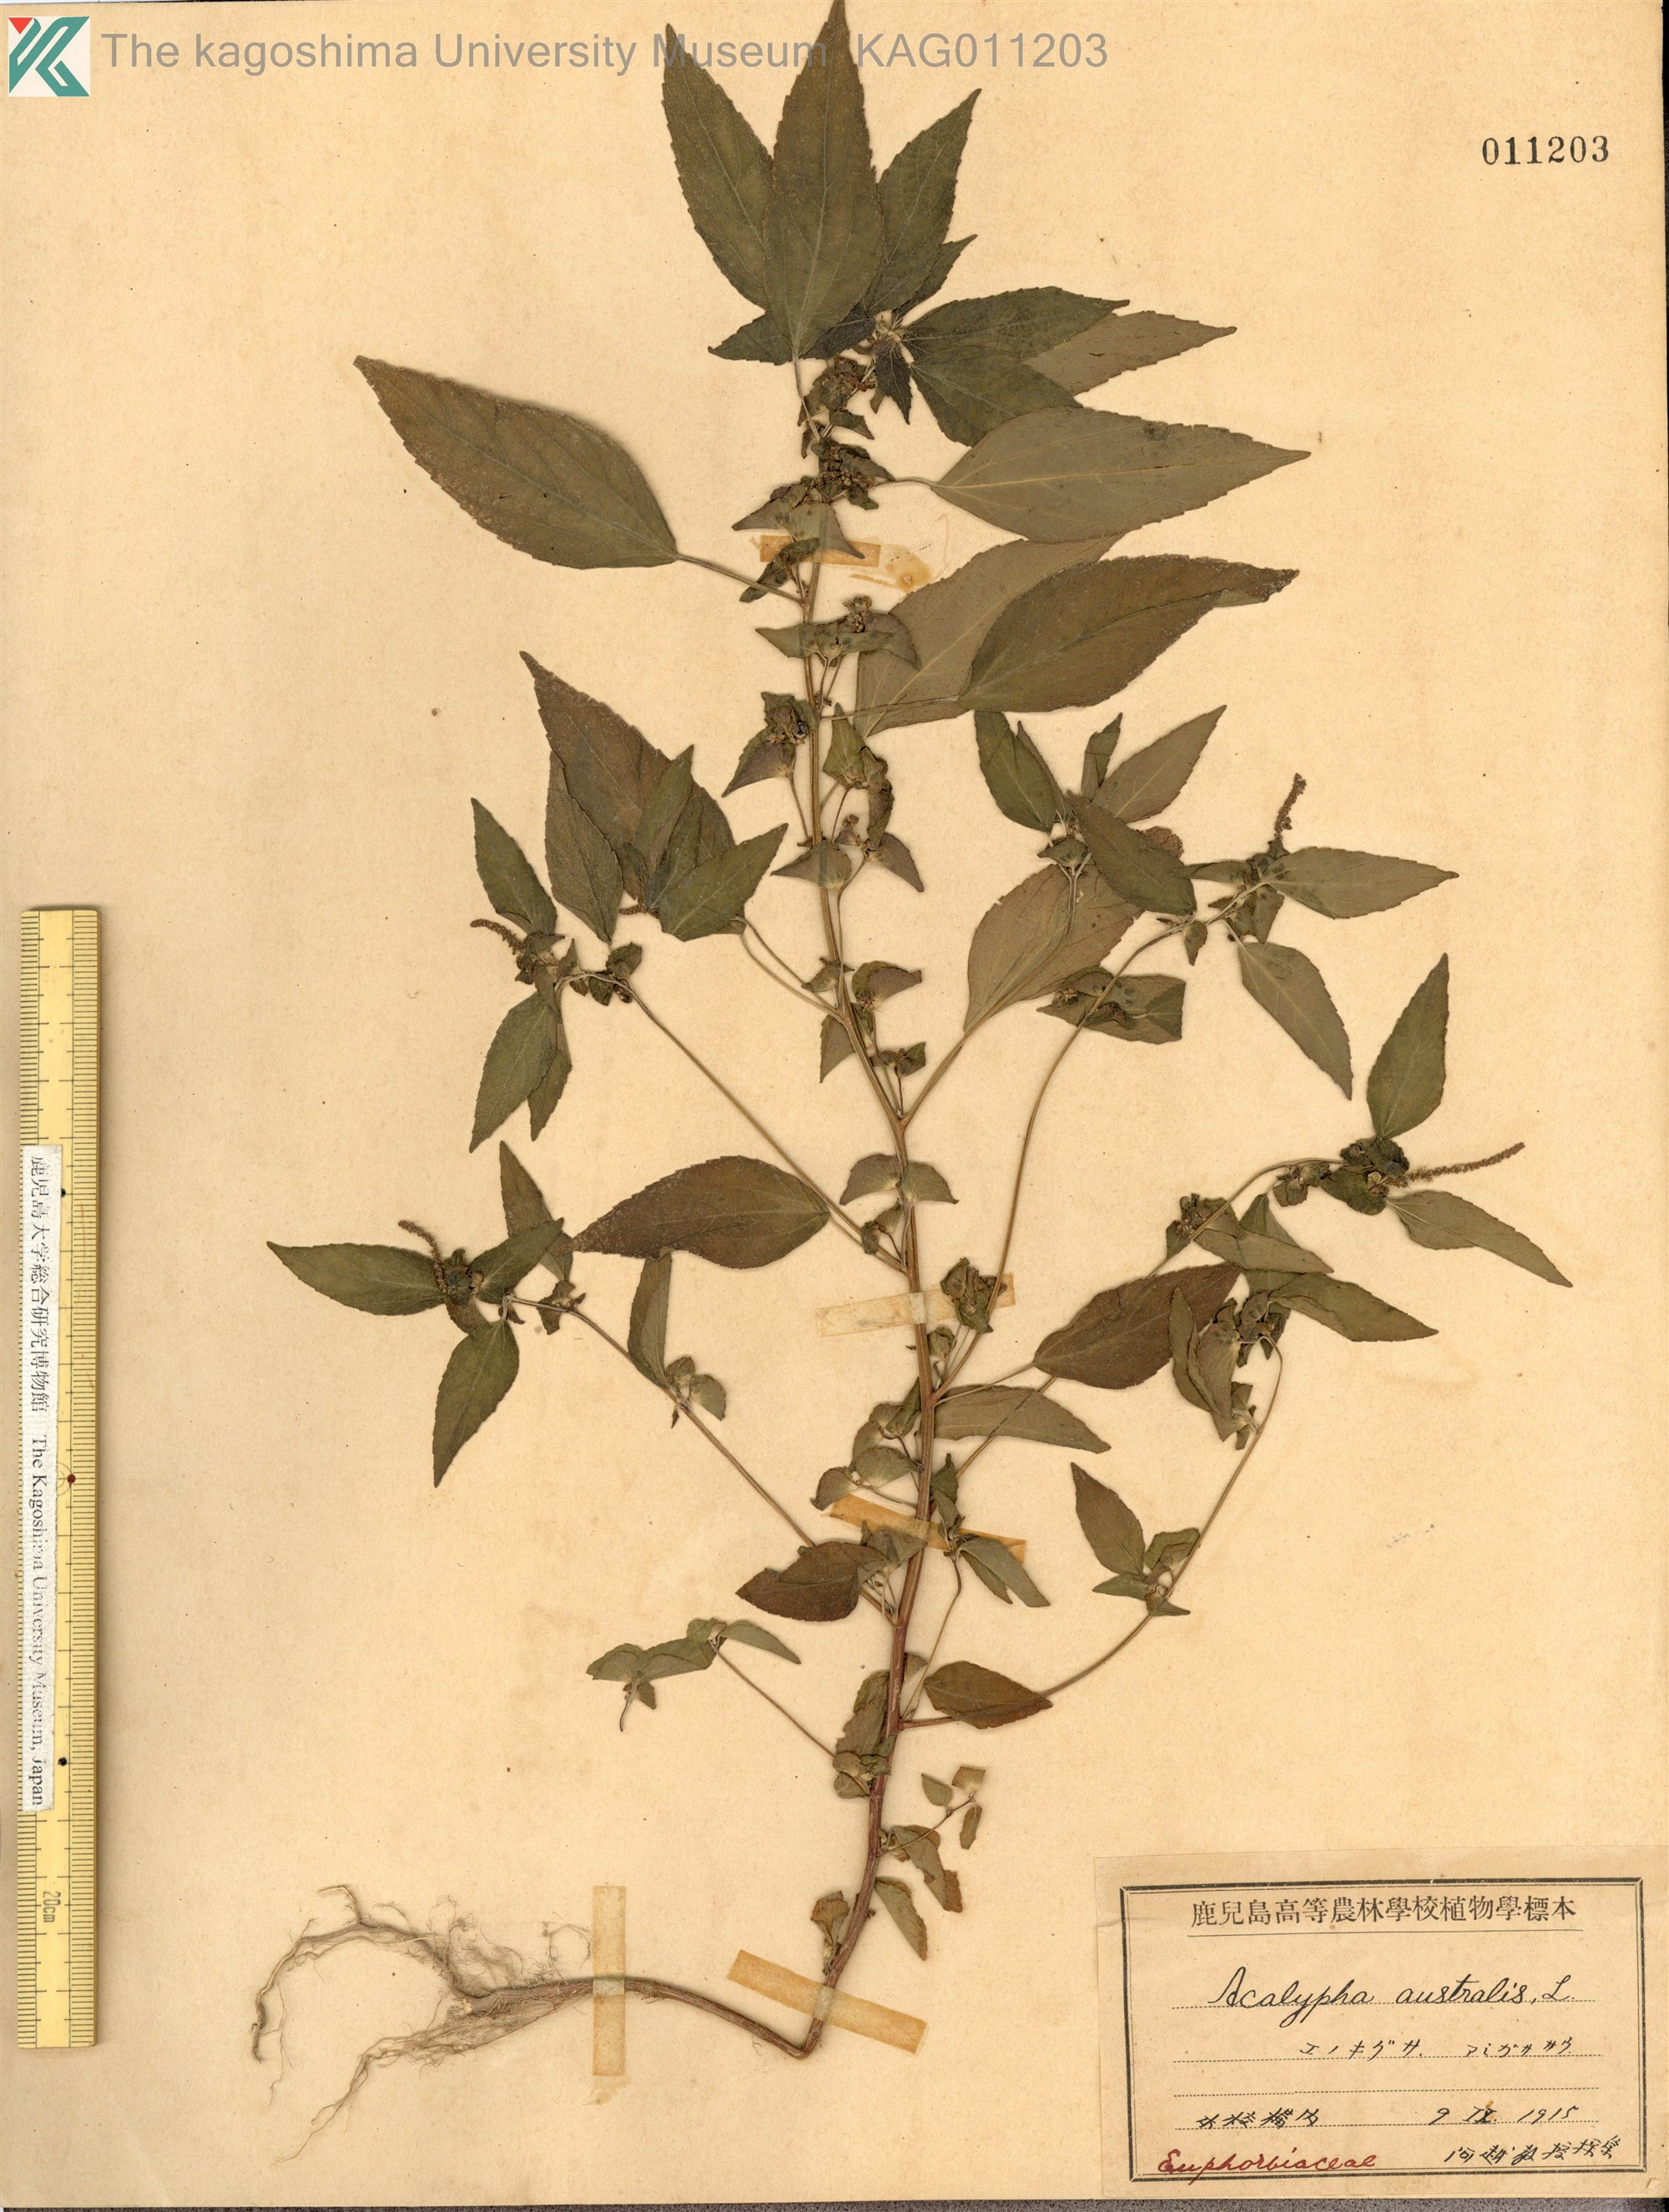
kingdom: Plantae
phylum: Tracheophyta
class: Magnoliopsida
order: Malpighiales
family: Euphorbiaceae
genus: Acalypha
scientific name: Acalypha australis
